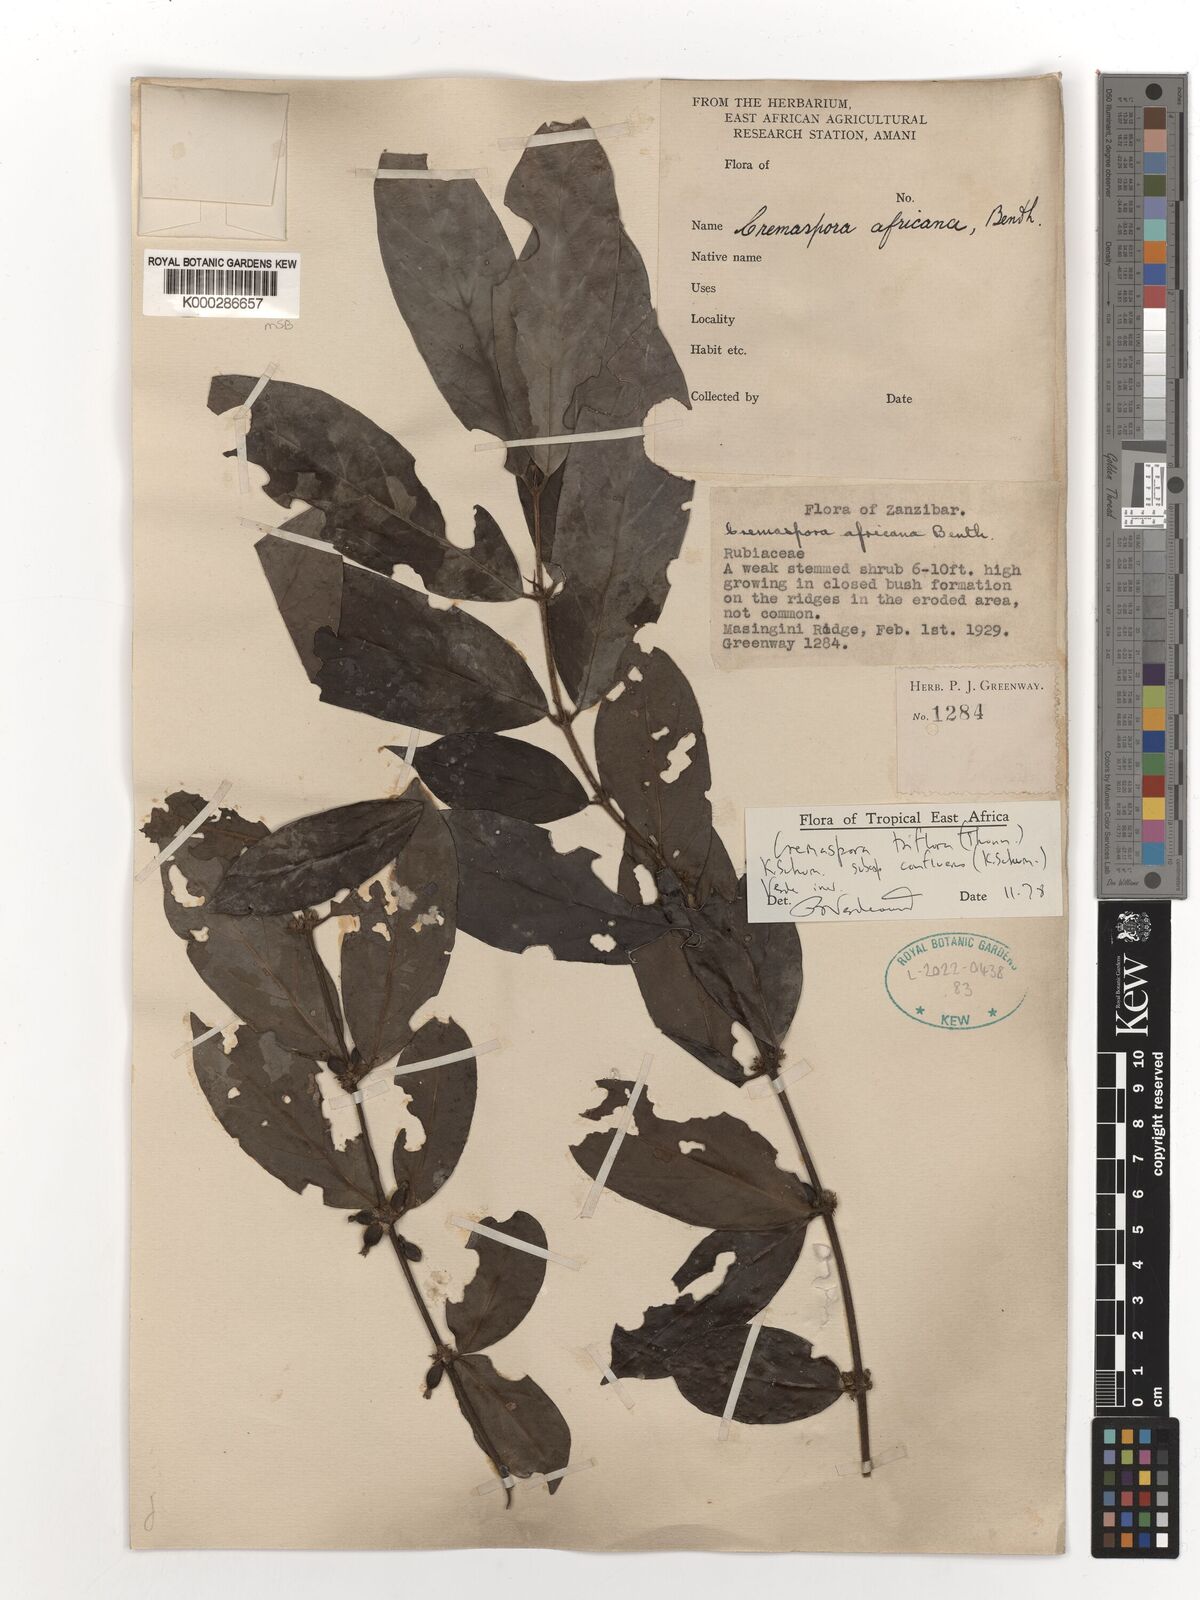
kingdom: Plantae
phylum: Tracheophyta
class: Magnoliopsida
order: Gentianales
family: Rubiaceae
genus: Cremaspora
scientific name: Cremaspora triflora
